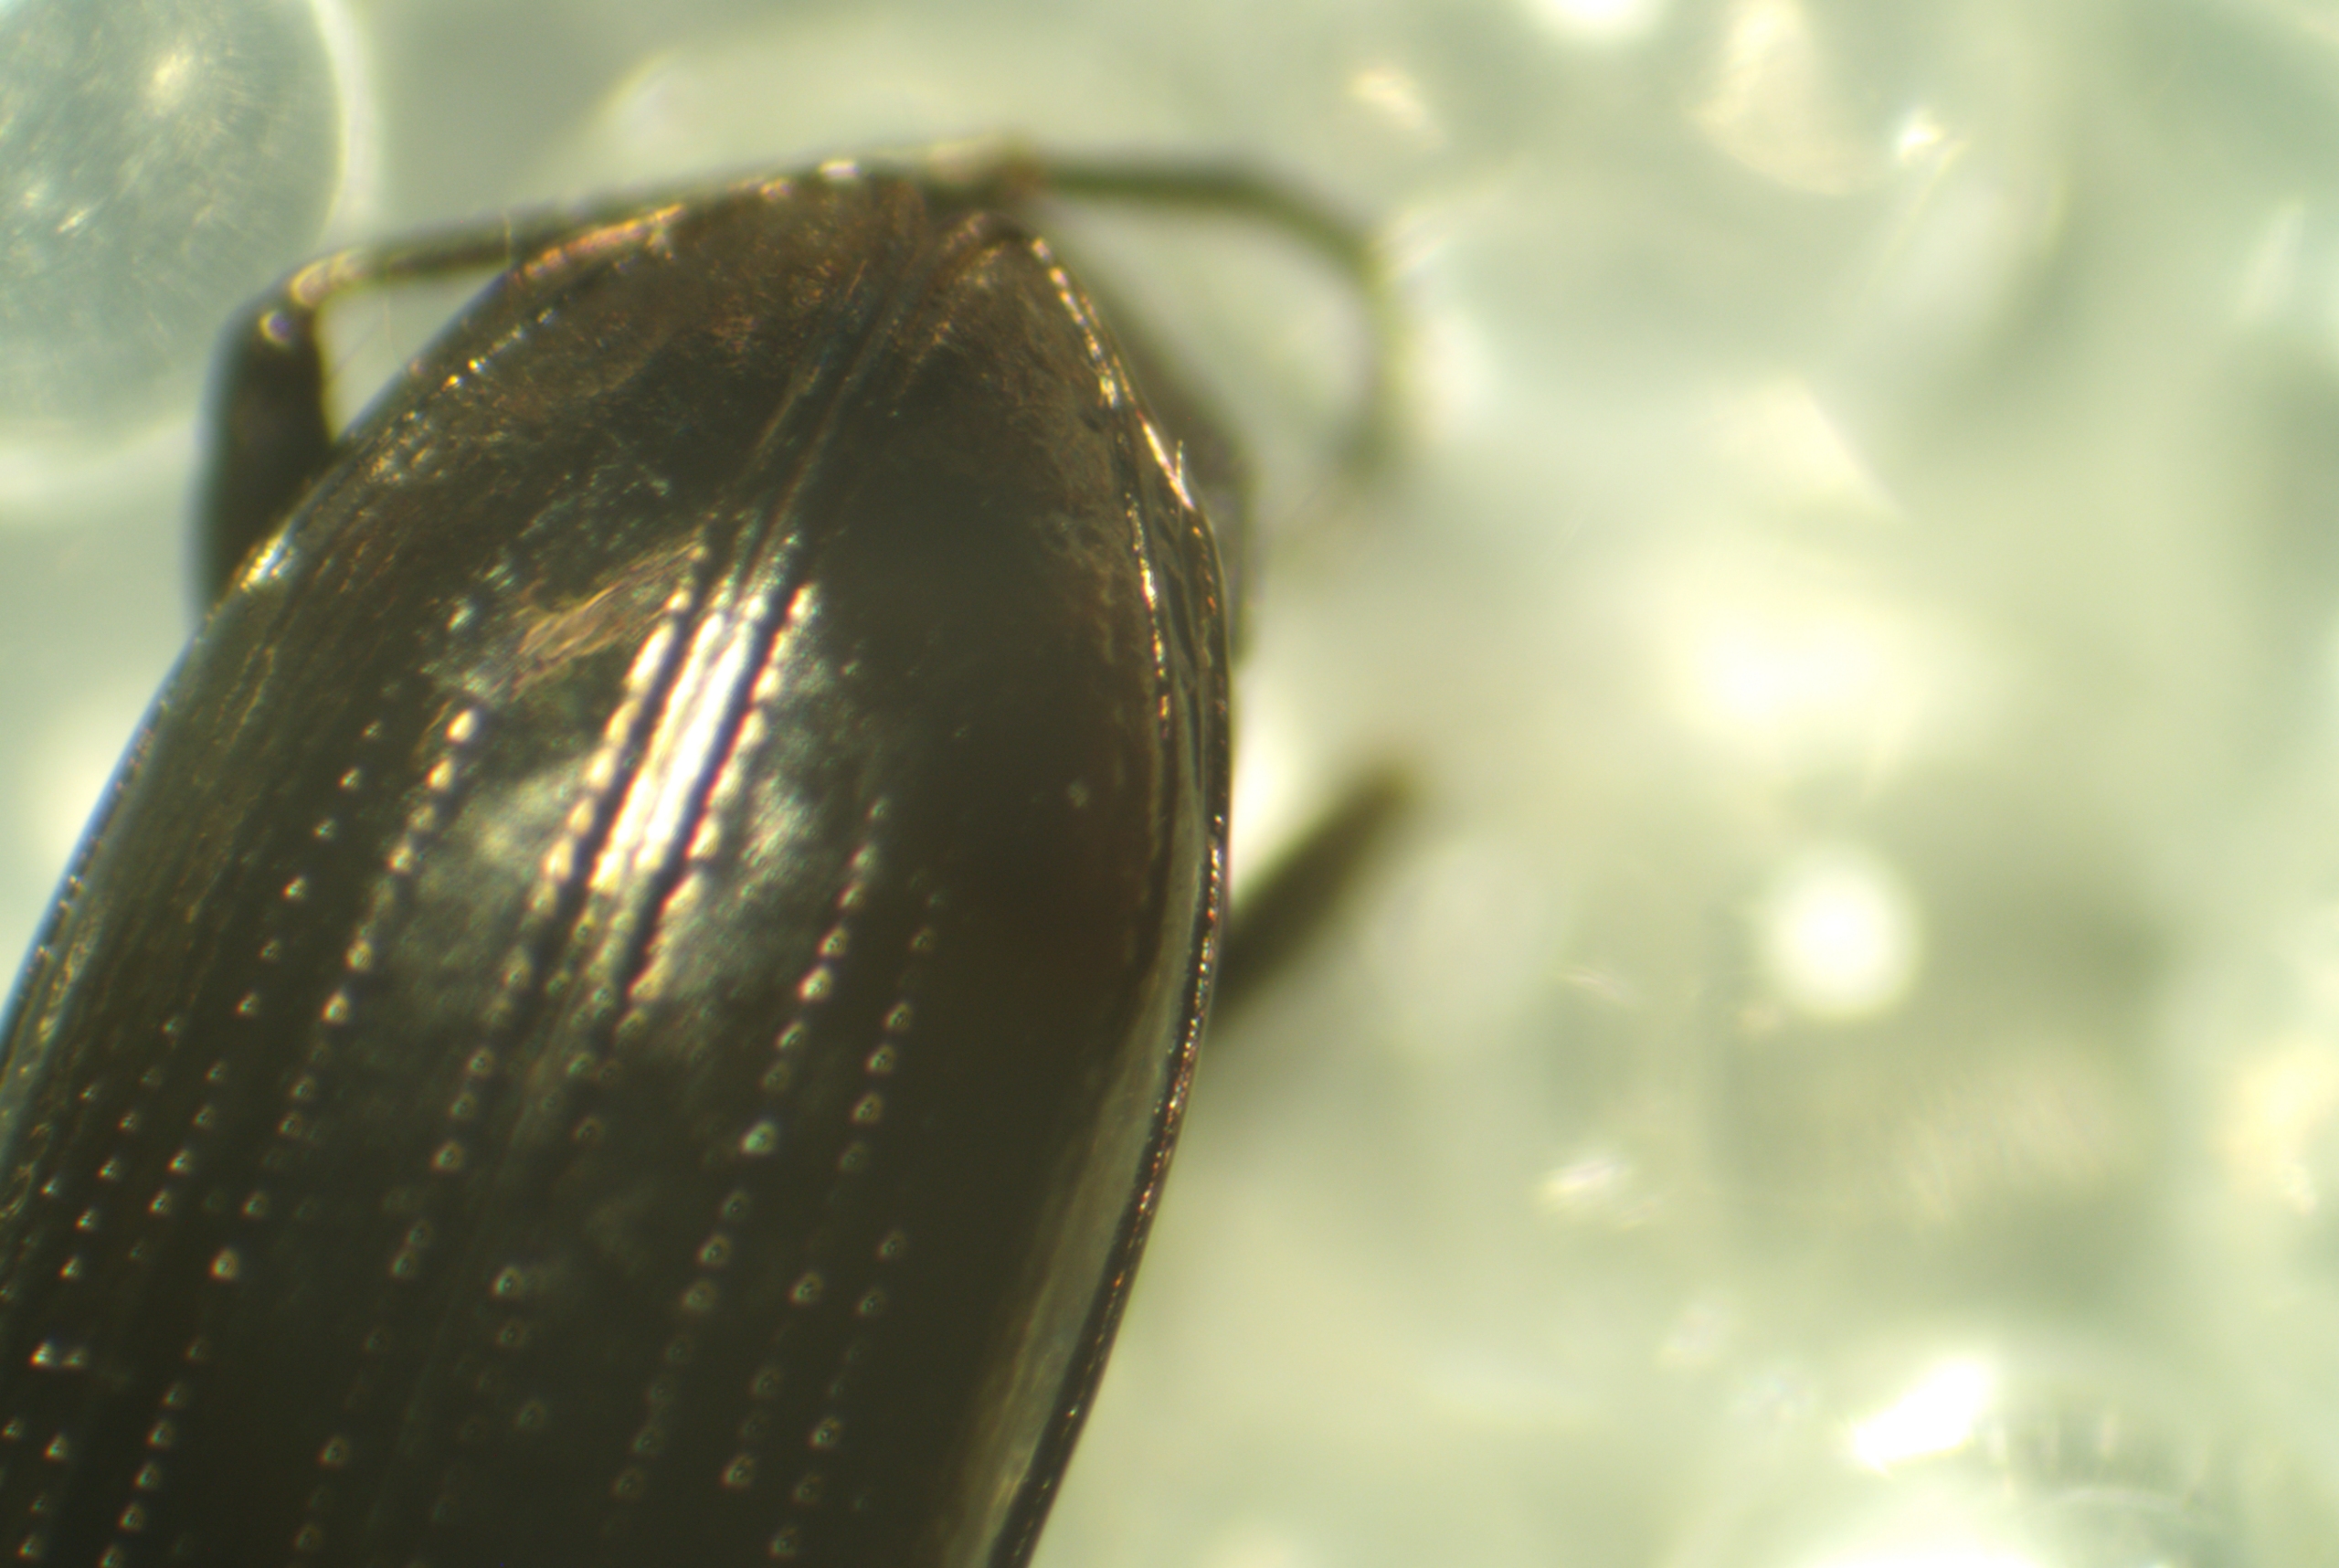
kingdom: Animalia
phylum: Arthropoda
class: Insecta
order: Coleoptera
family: Carabidae
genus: Notiophilus
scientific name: Notiophilus aestuans
